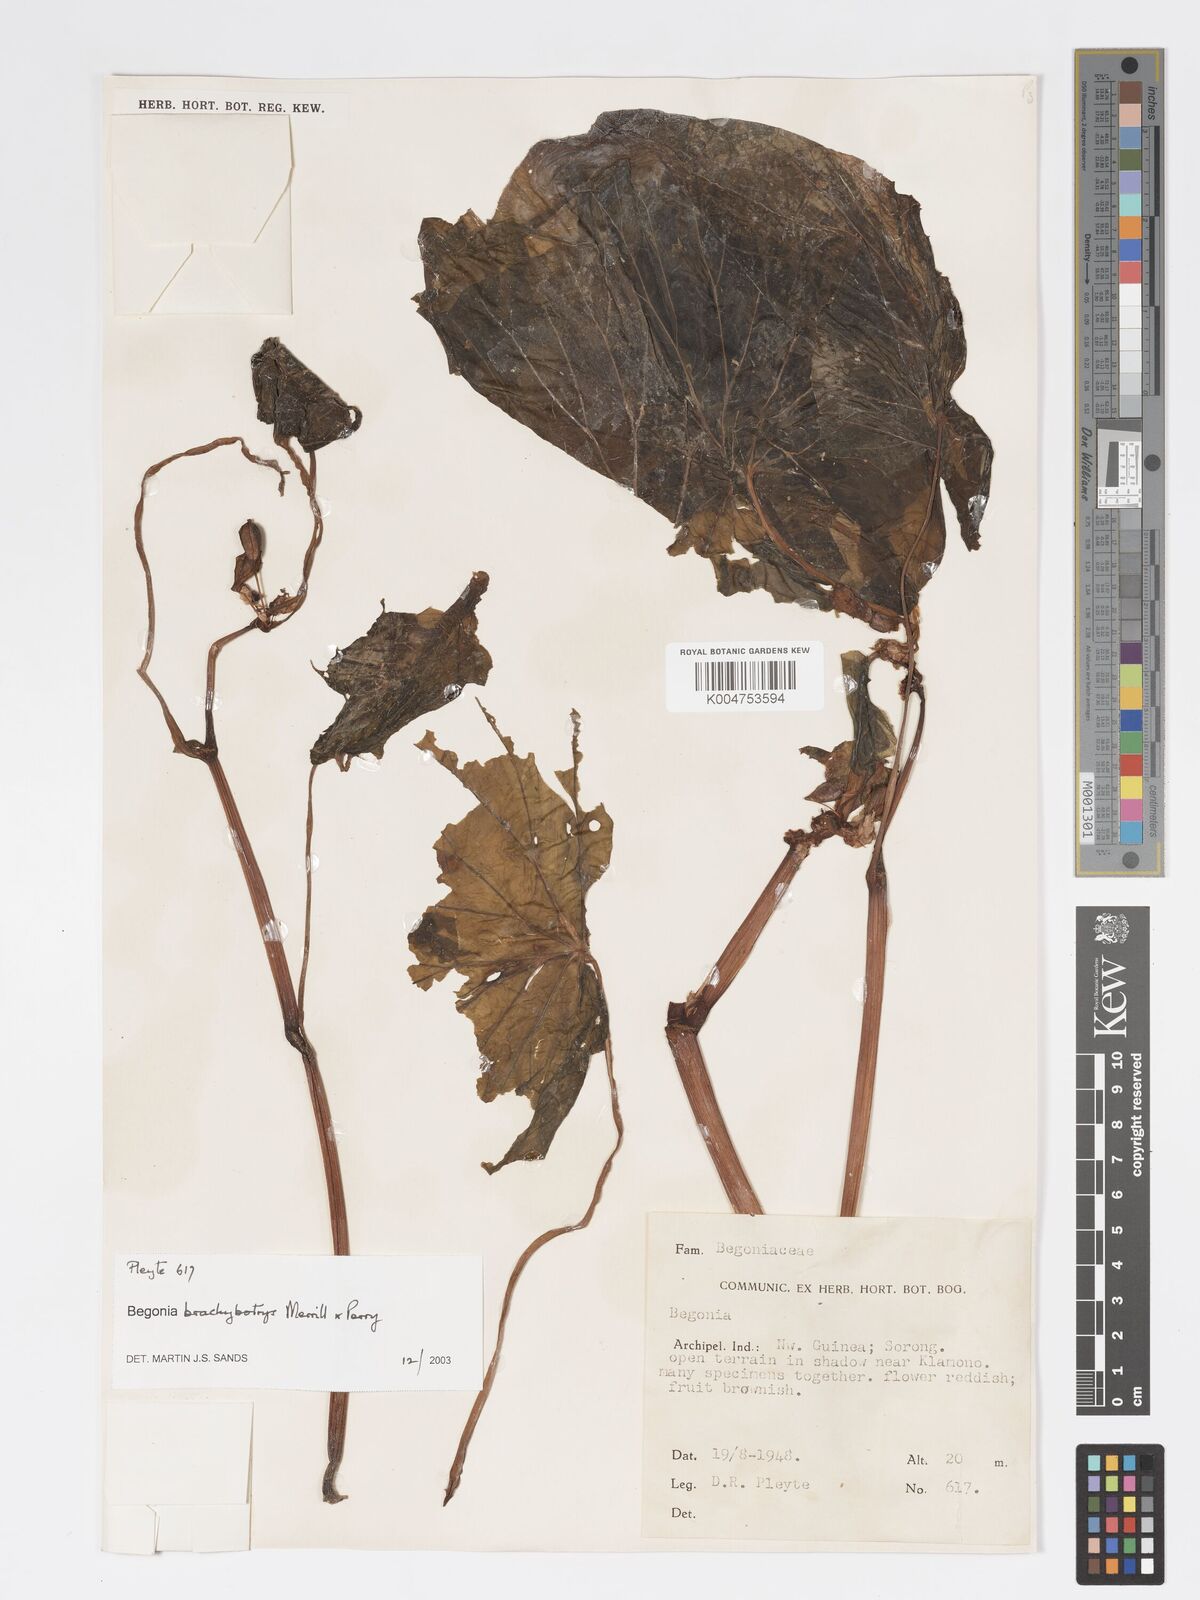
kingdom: Plantae
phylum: Tracheophyta
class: Magnoliopsida
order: Cucurbitales
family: Begoniaceae
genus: Begonia
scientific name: Begonia brachybotrys
